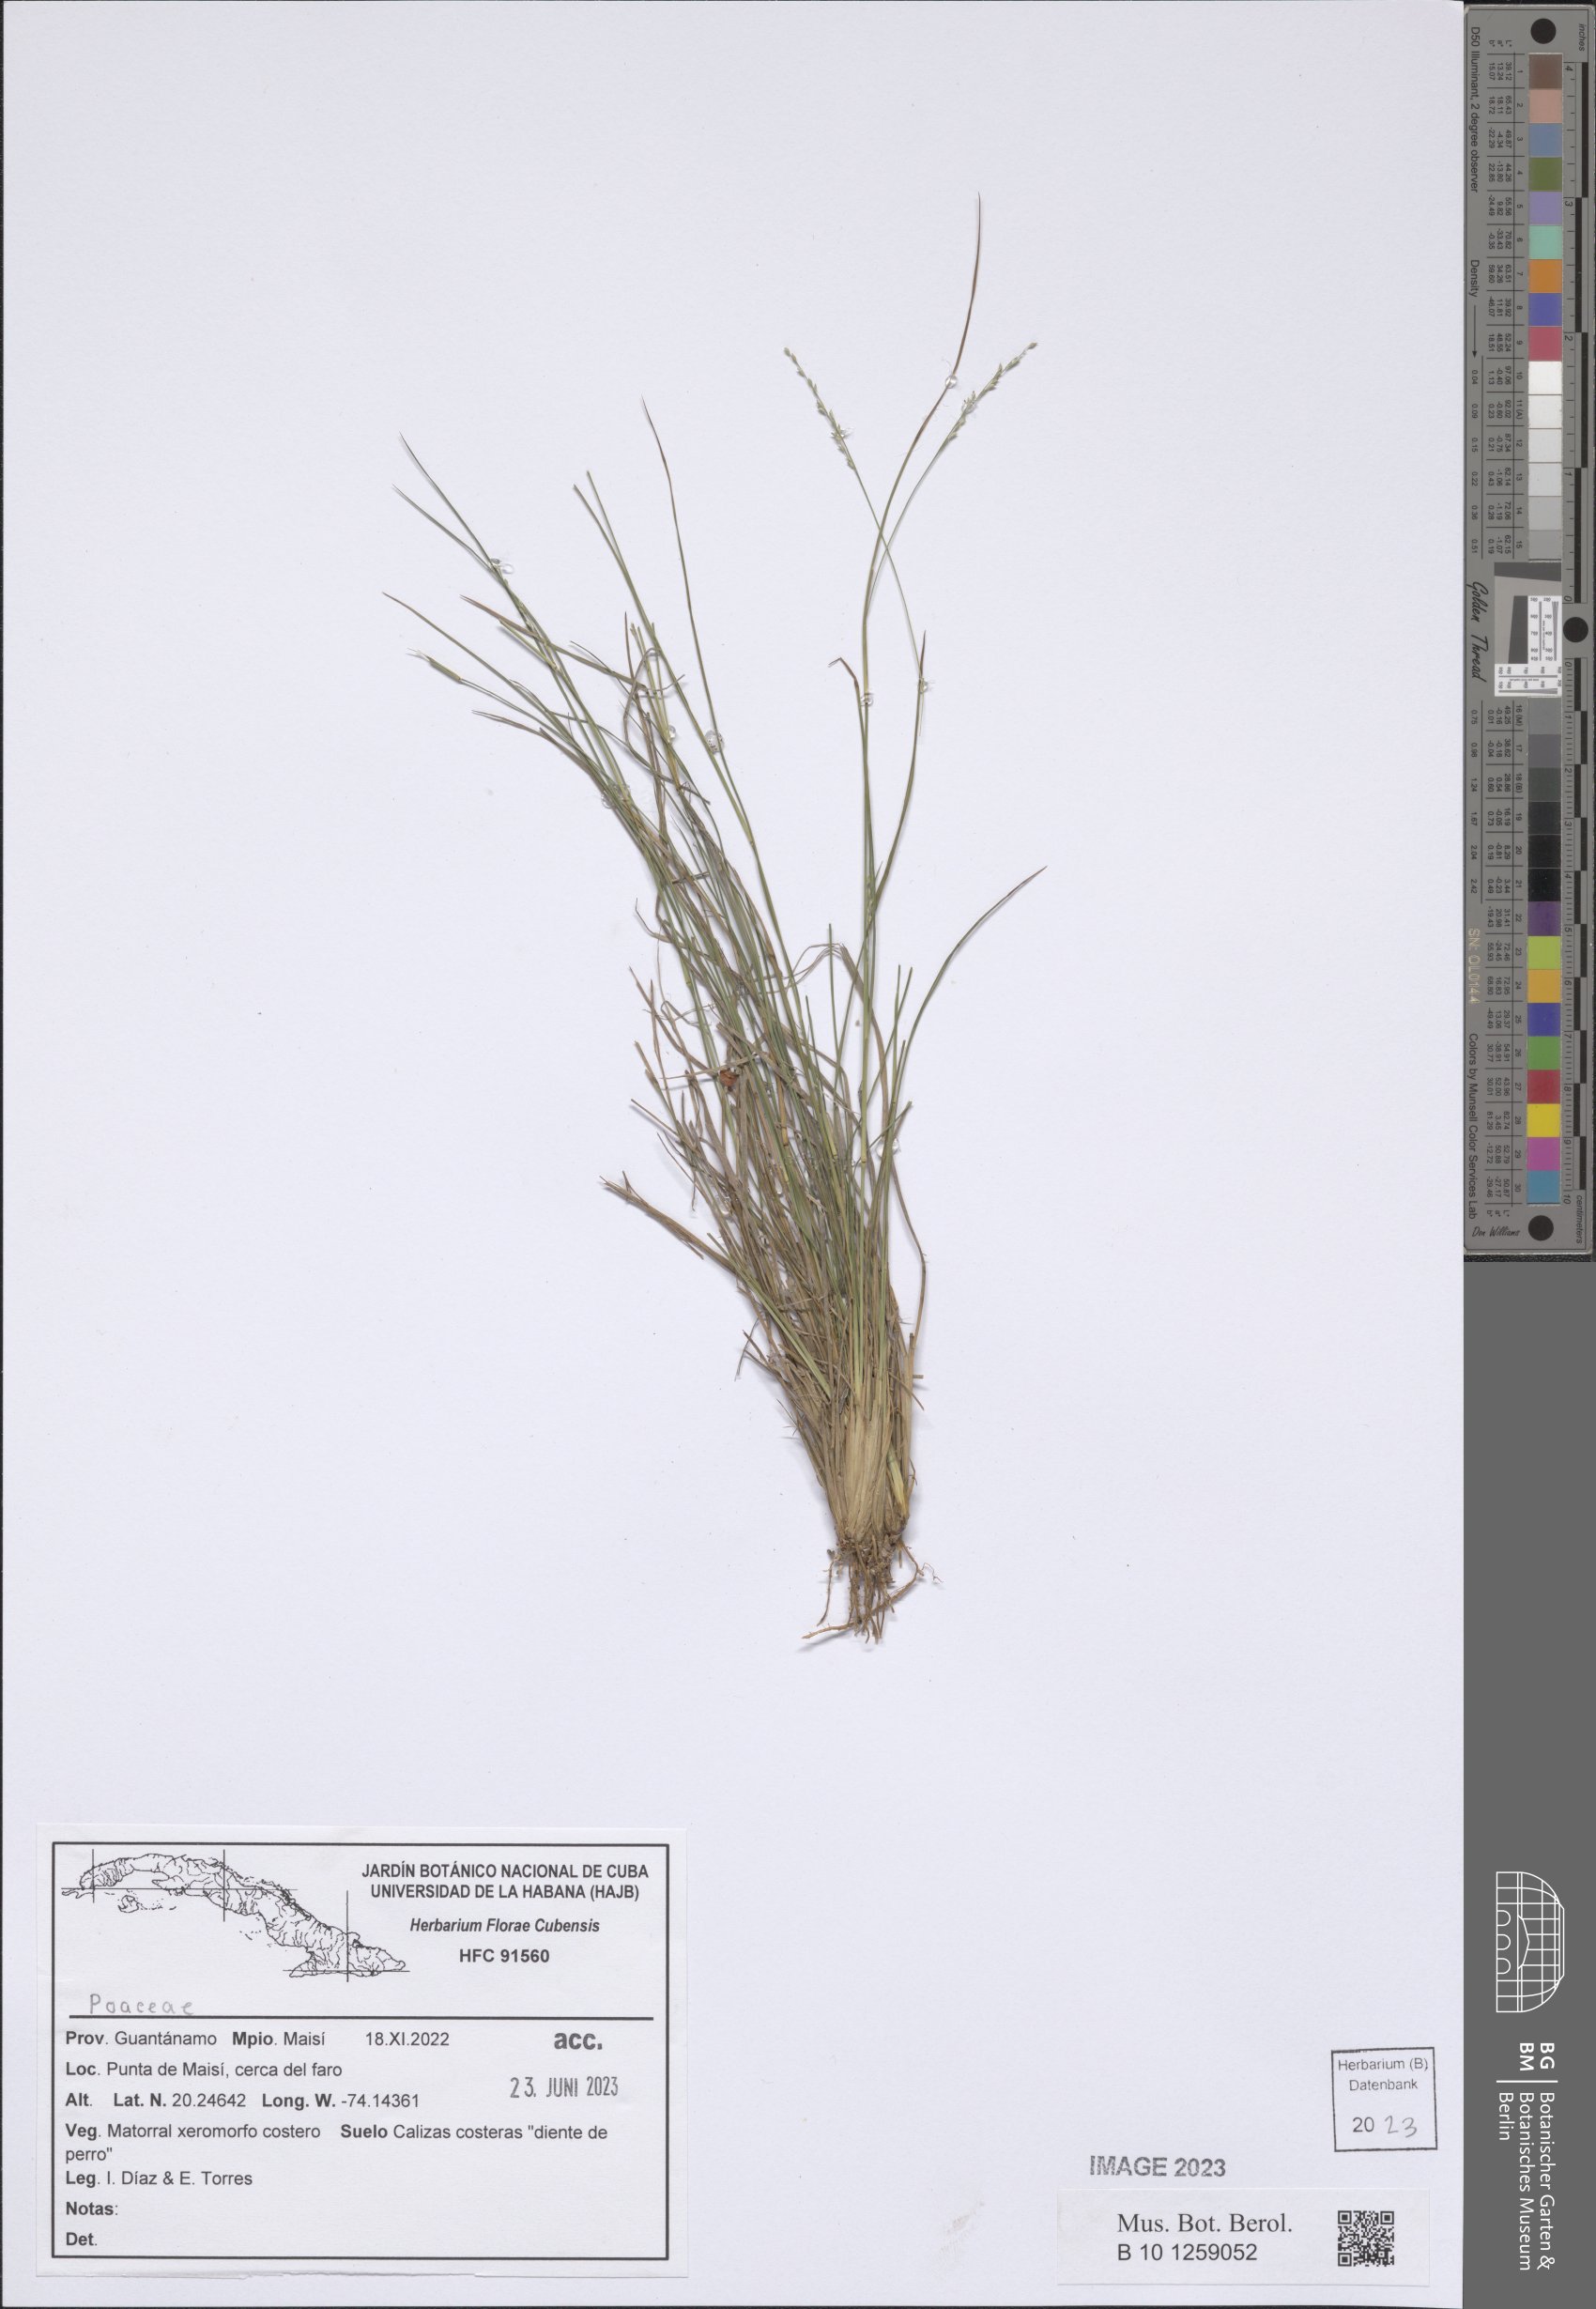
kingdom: Plantae
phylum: Tracheophyta
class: Liliopsida
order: Poales
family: Poaceae
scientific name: Poaceae
